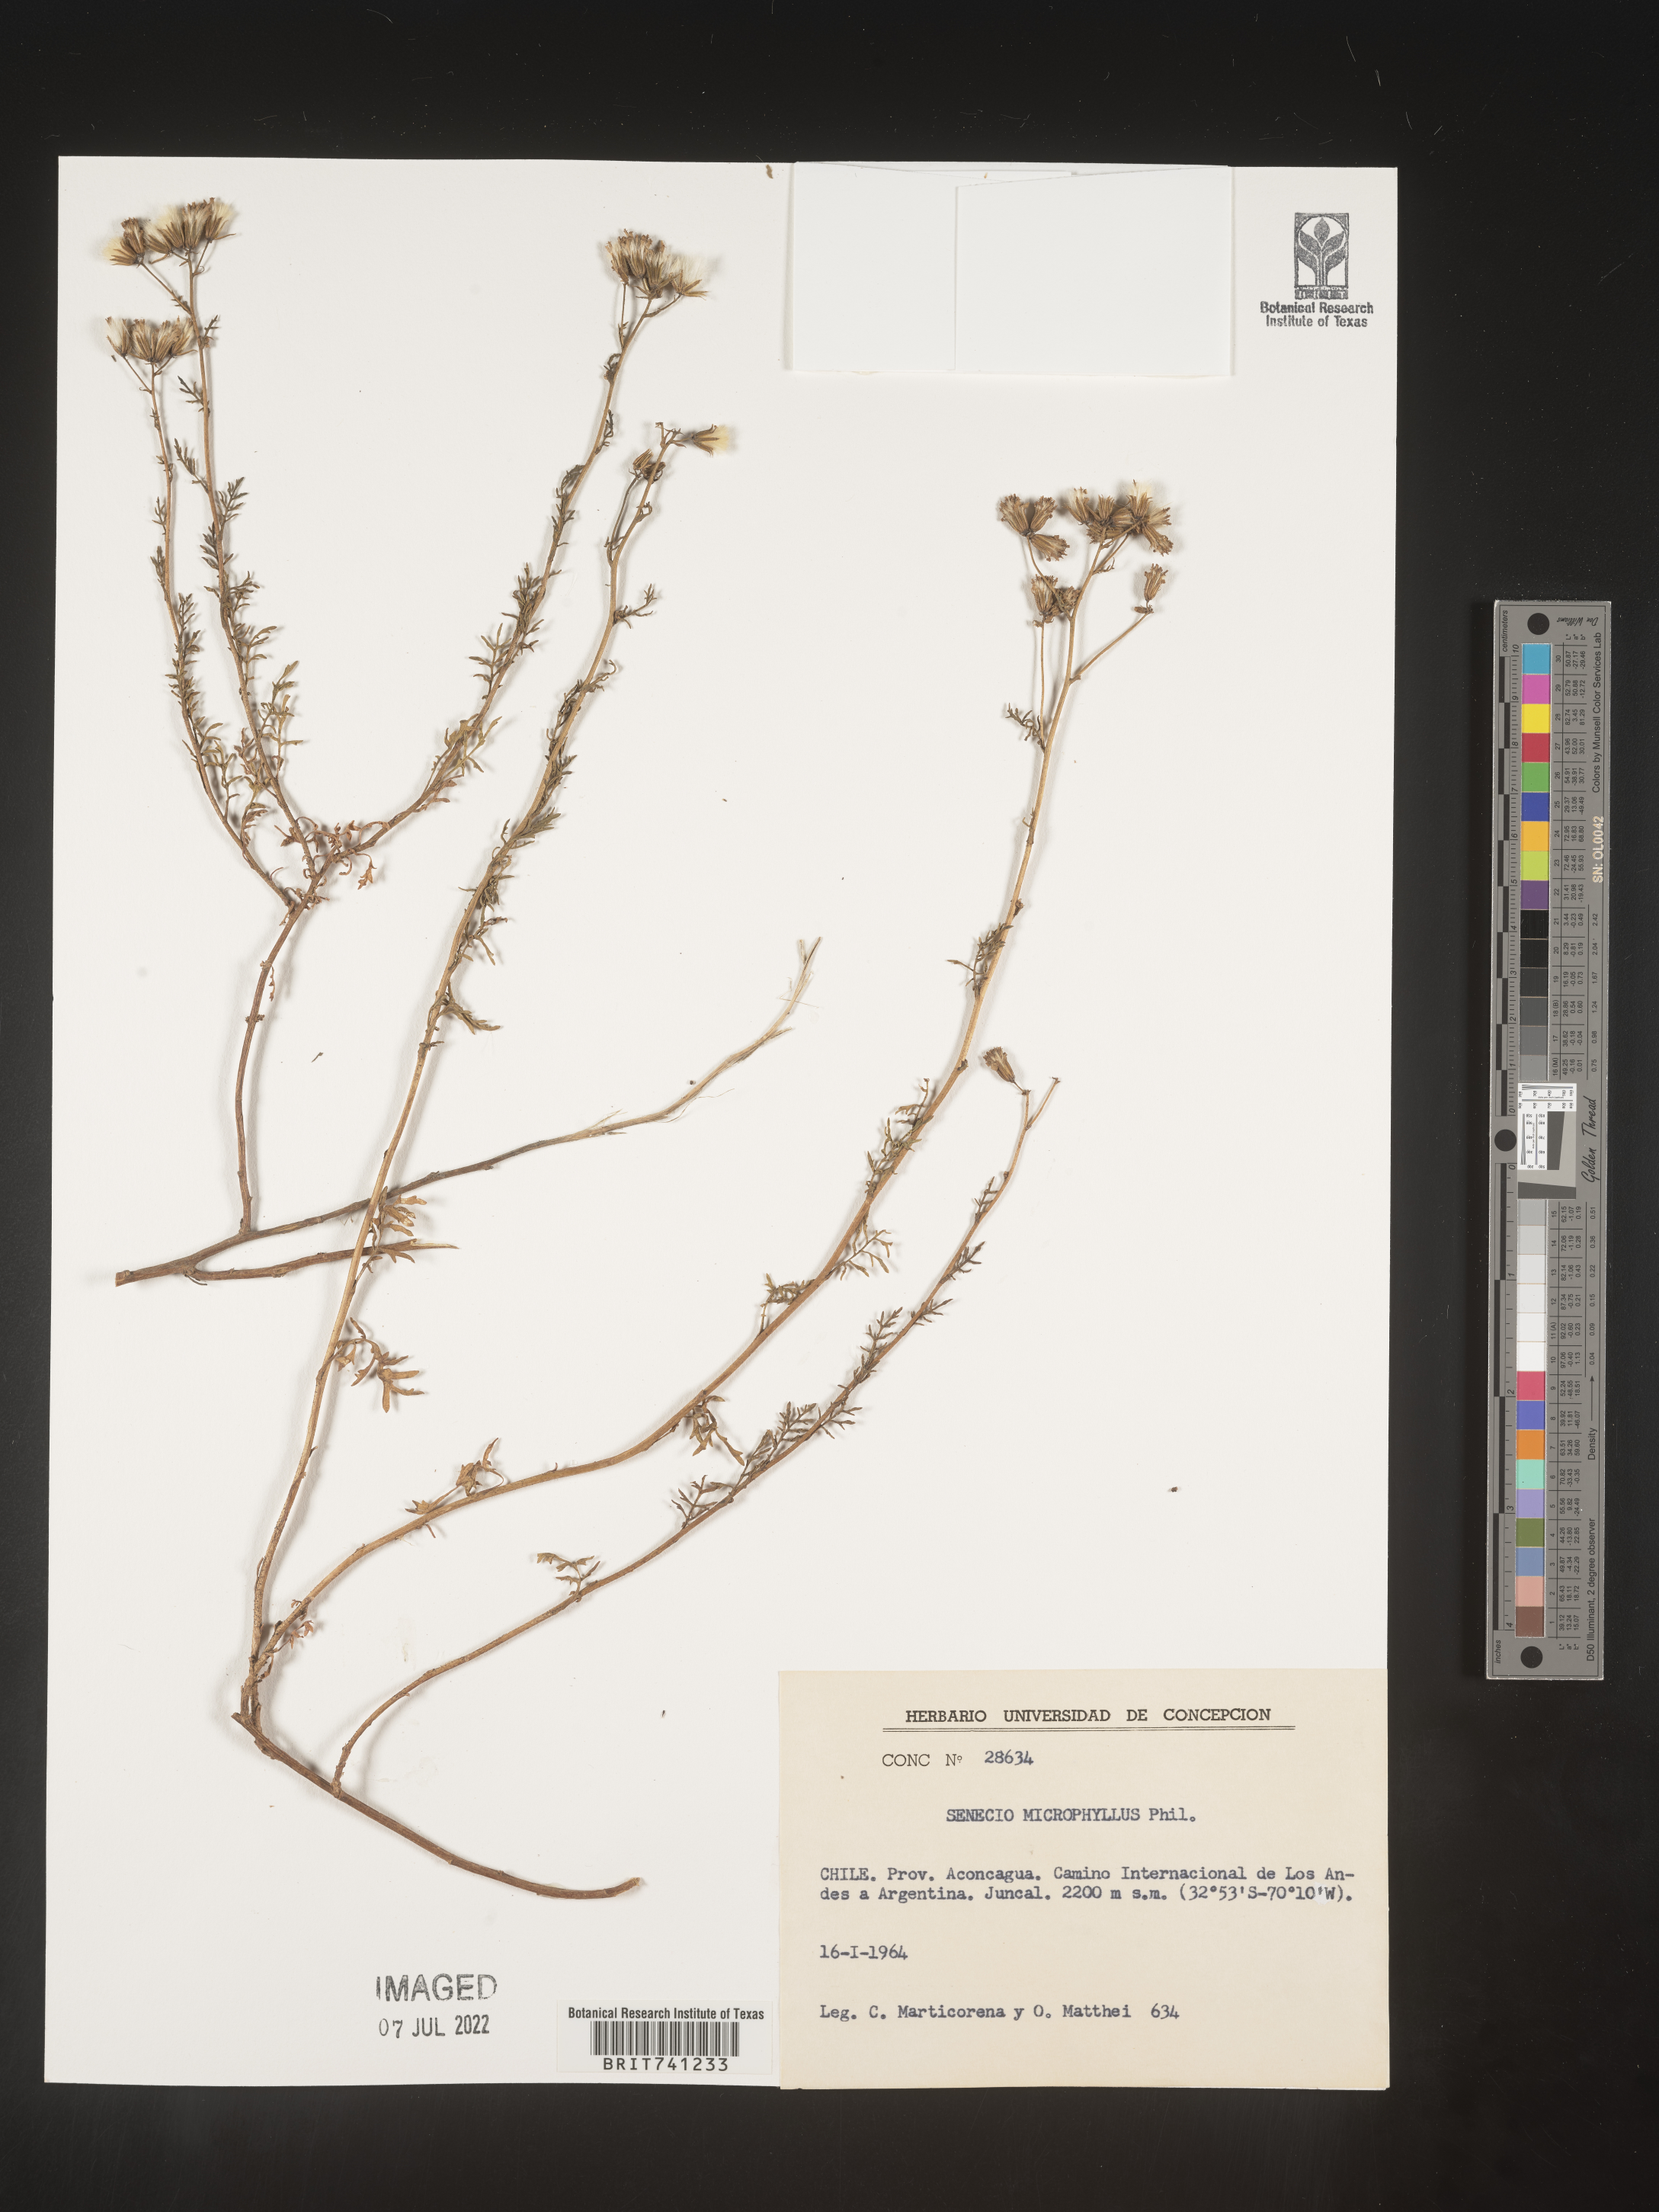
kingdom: Plantae
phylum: Tracheophyta
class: Magnoliopsida
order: Asterales
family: Asteraceae
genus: Senecio
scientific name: Senecio
